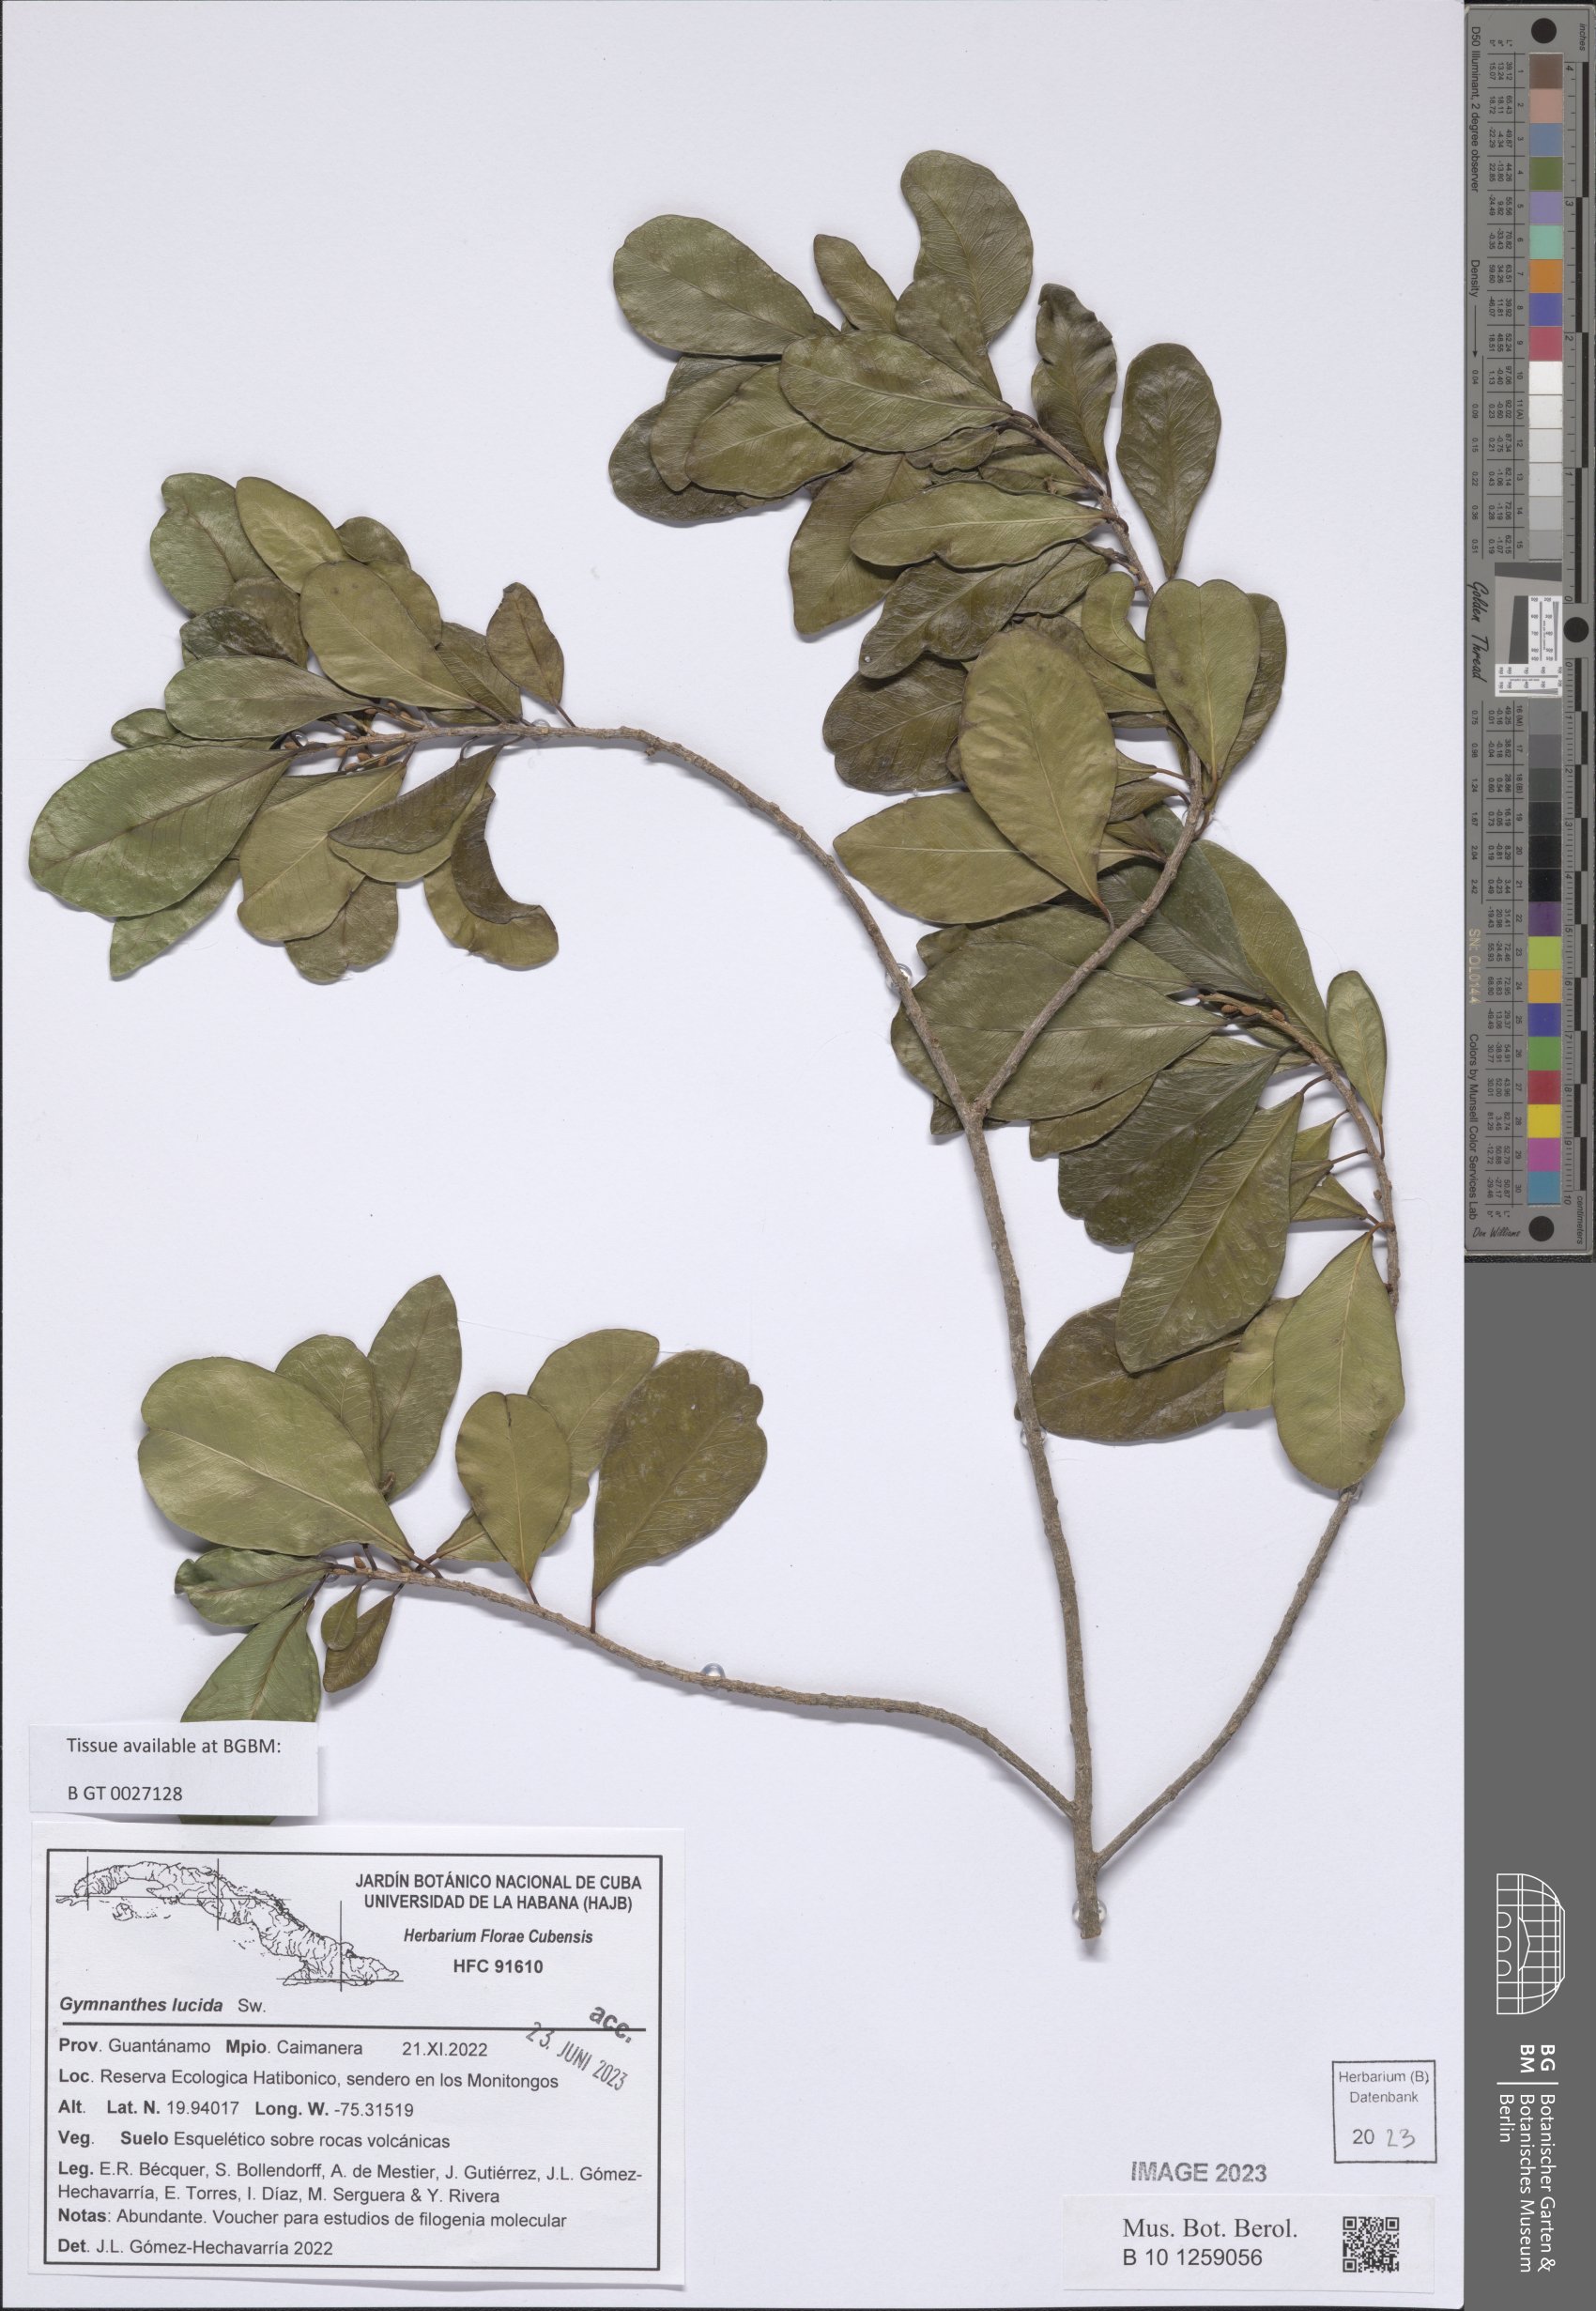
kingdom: Plantae
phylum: Tracheophyta
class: Magnoliopsida
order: Malpighiales
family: Euphorbiaceae
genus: Gymnanthes
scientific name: Gymnanthes lucida
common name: Oysterwood
